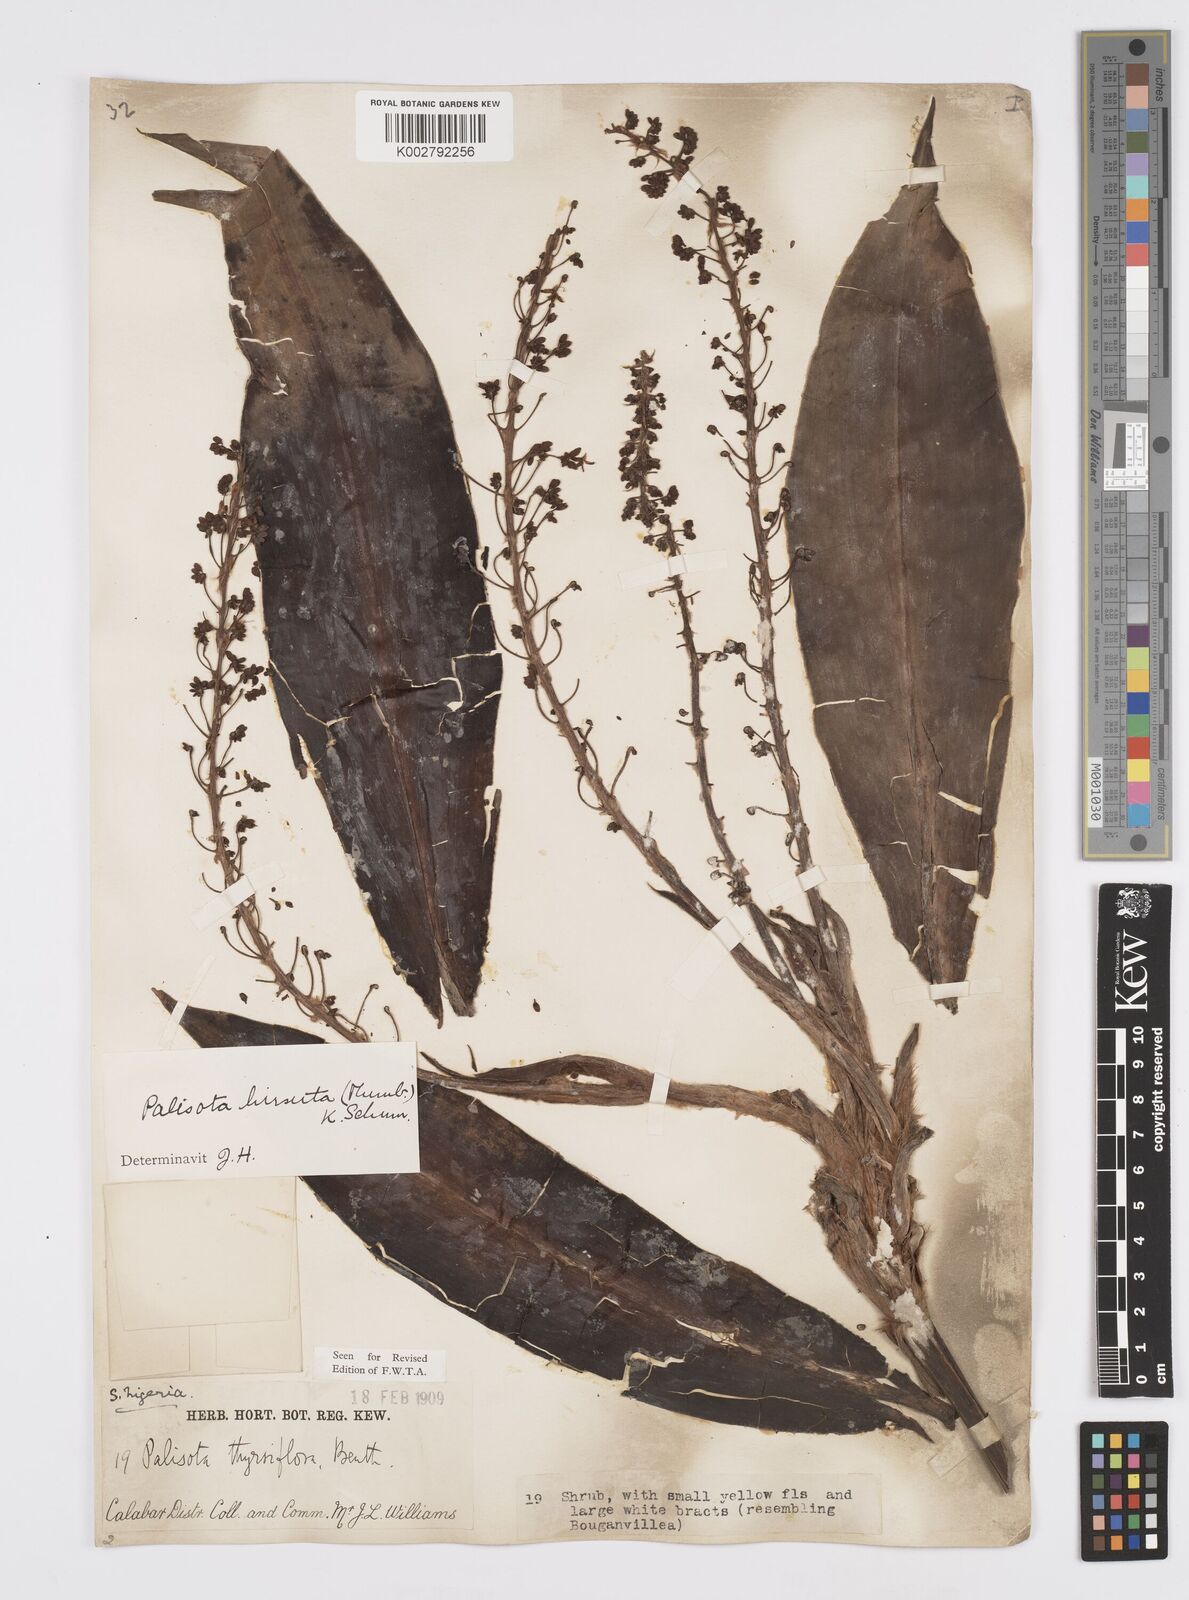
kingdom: Plantae
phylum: Tracheophyta
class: Liliopsida
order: Commelinales
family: Commelinaceae
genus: Palisota
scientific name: Palisota hirsuta
